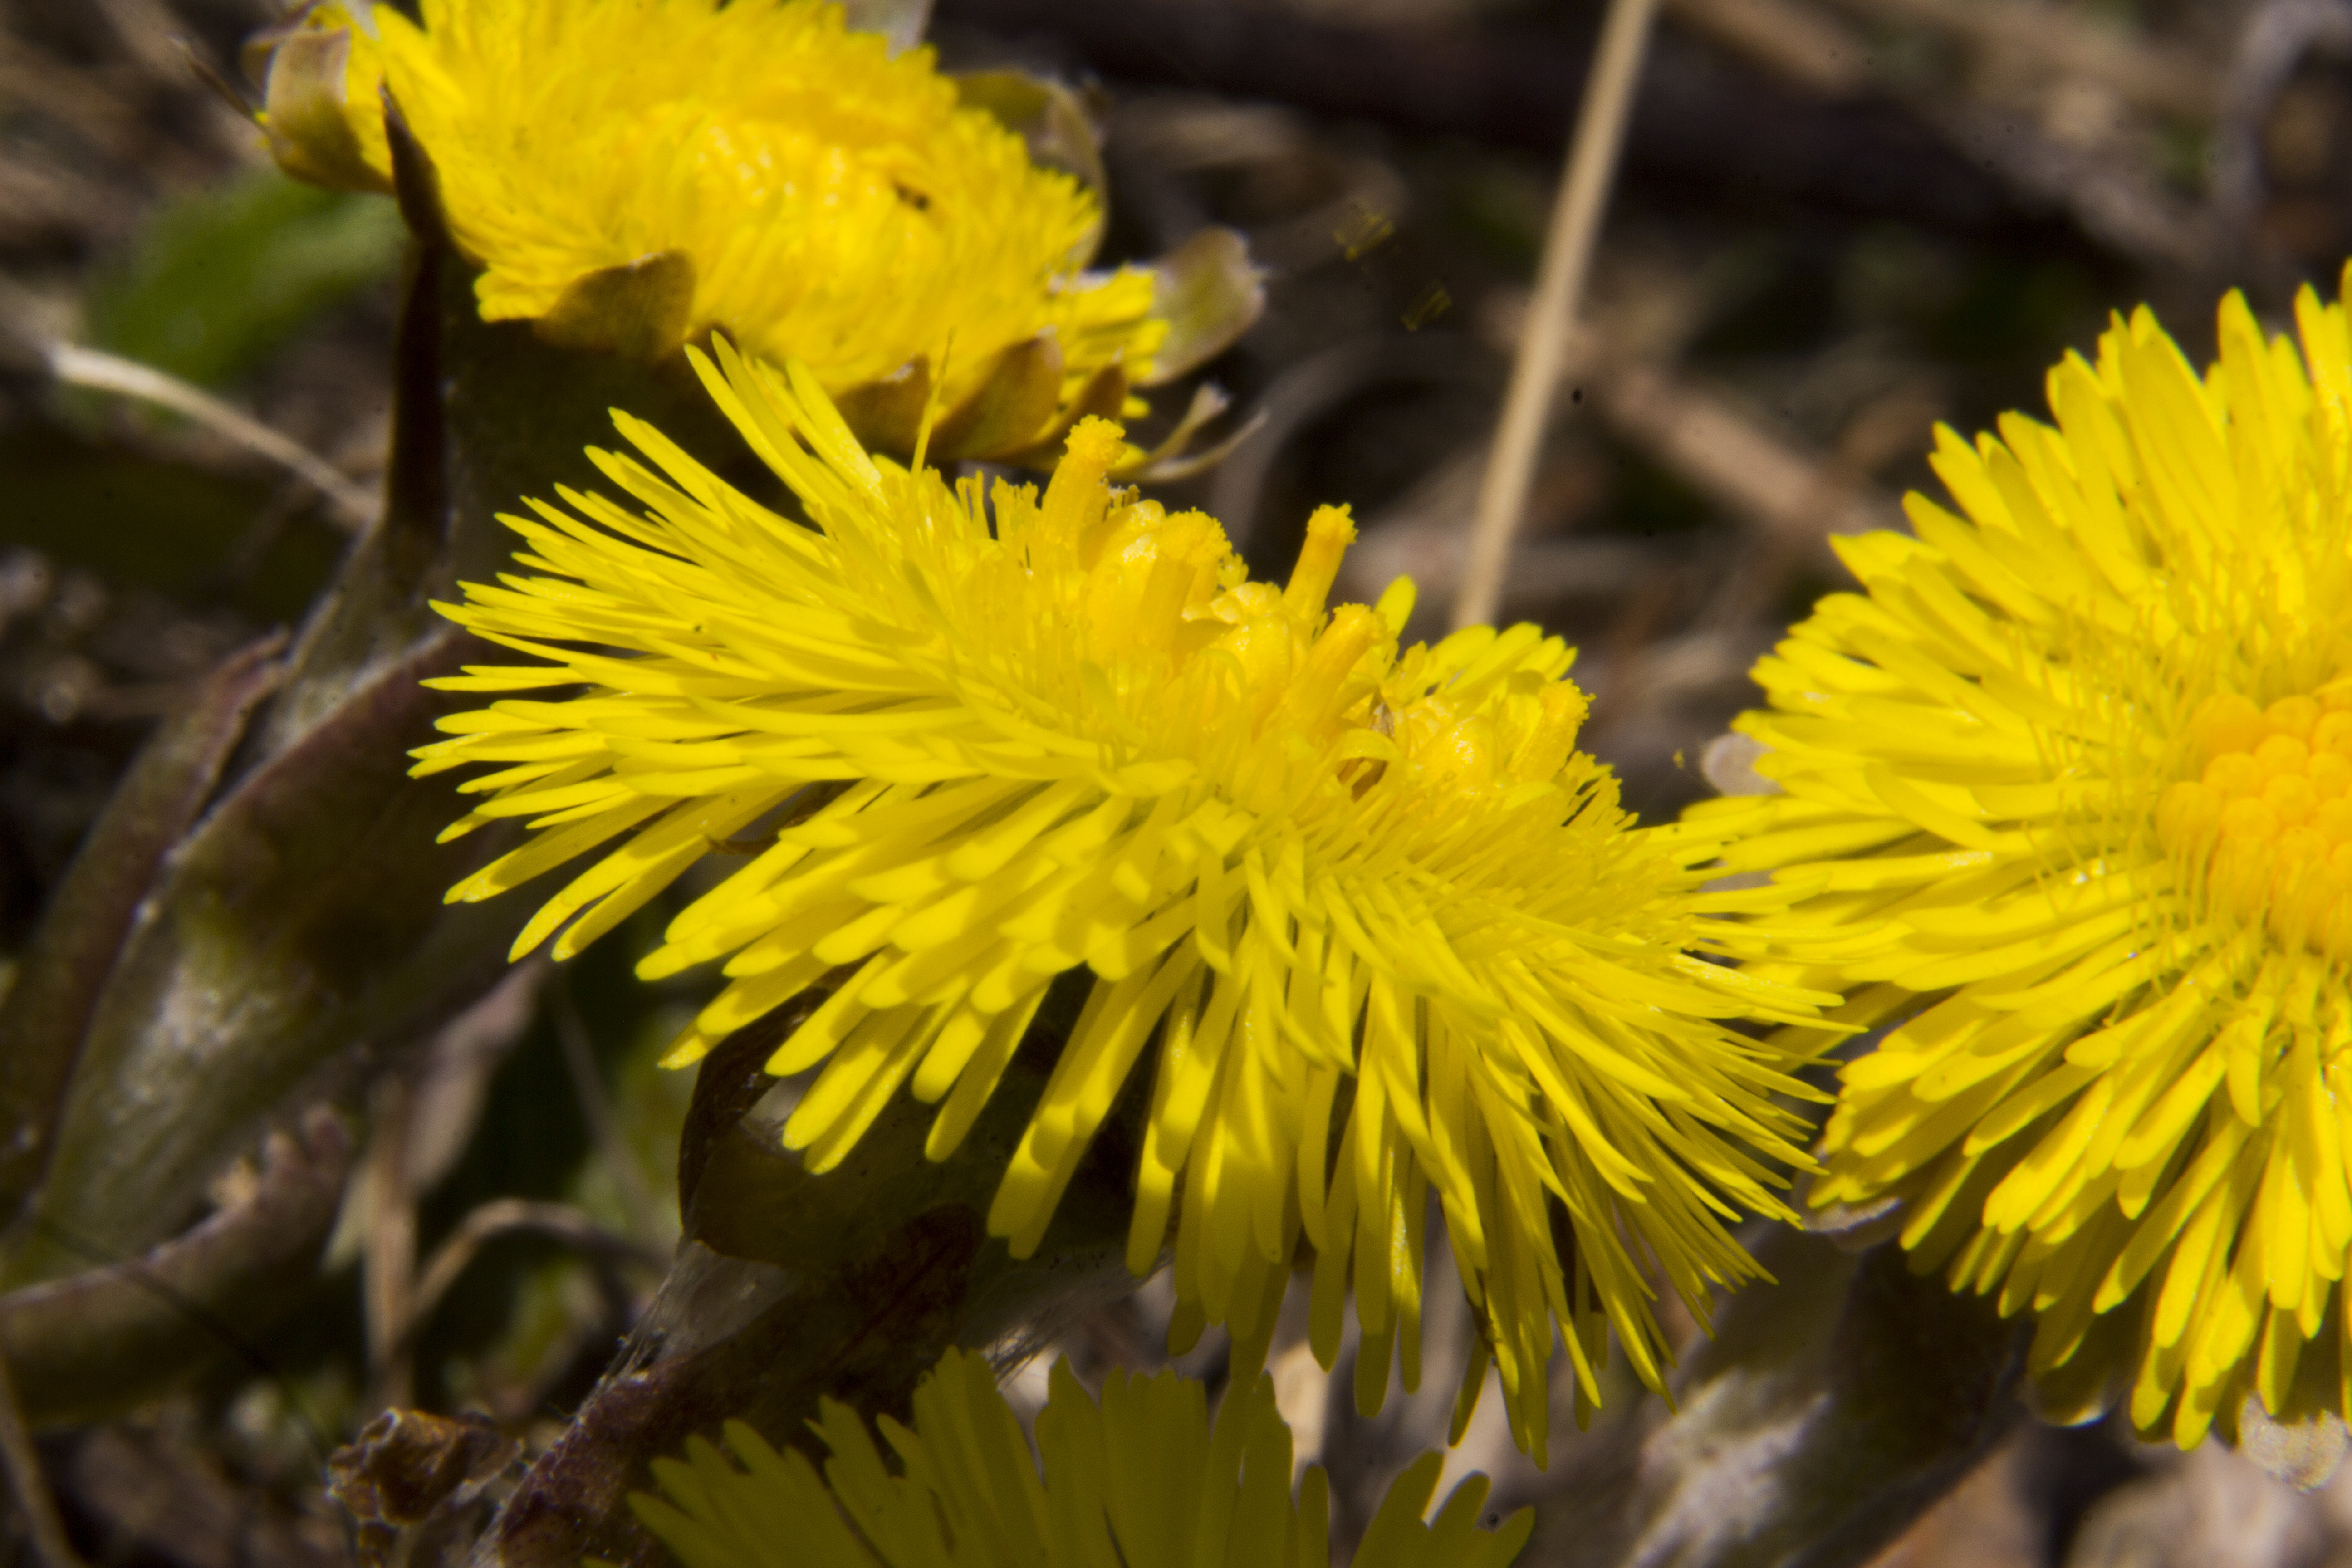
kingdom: Plantae
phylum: Tracheophyta
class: Magnoliopsida
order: Asterales
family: Asteraceae
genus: Tussilago
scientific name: Tussilago farfara
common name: Coltsfoot
